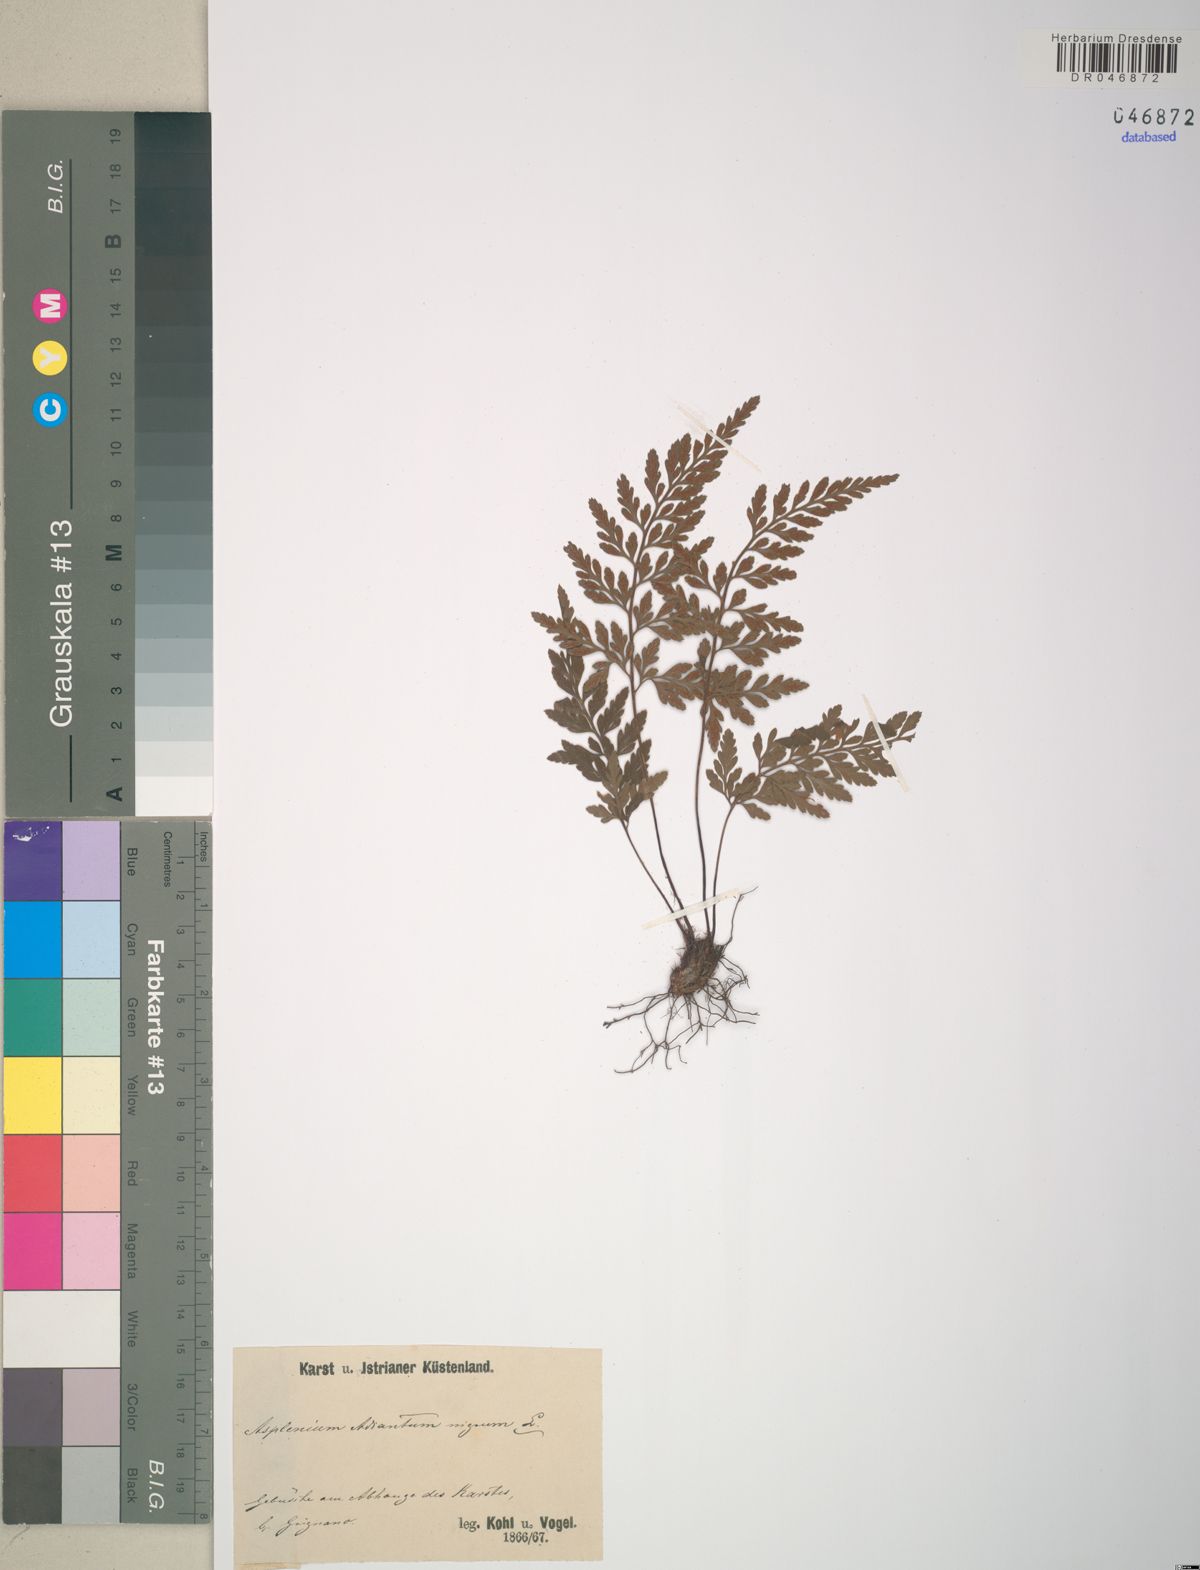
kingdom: Plantae
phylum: Tracheophyta
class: Polypodiopsida
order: Polypodiales
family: Aspleniaceae
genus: Asplenium
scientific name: Asplenium adiantum-nigrum
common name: Black spleenwort
